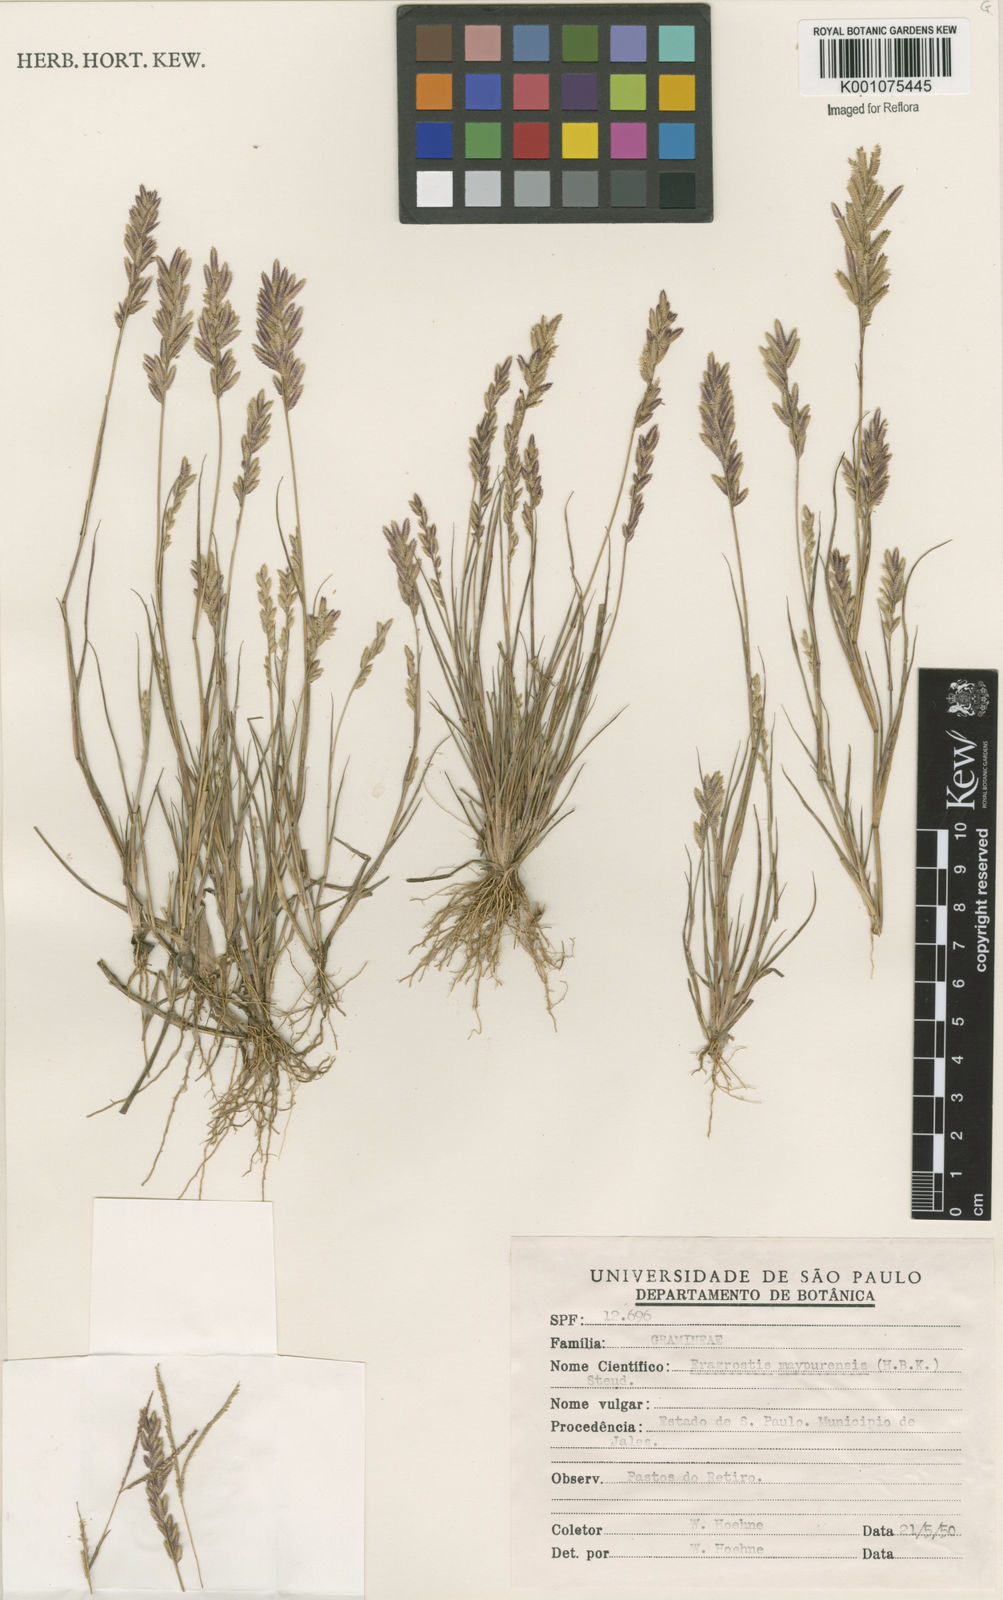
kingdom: Plantae
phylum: Tracheophyta
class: Liliopsida
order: Poales
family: Poaceae
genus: Eragrostis
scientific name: Eragrostis rufescens
